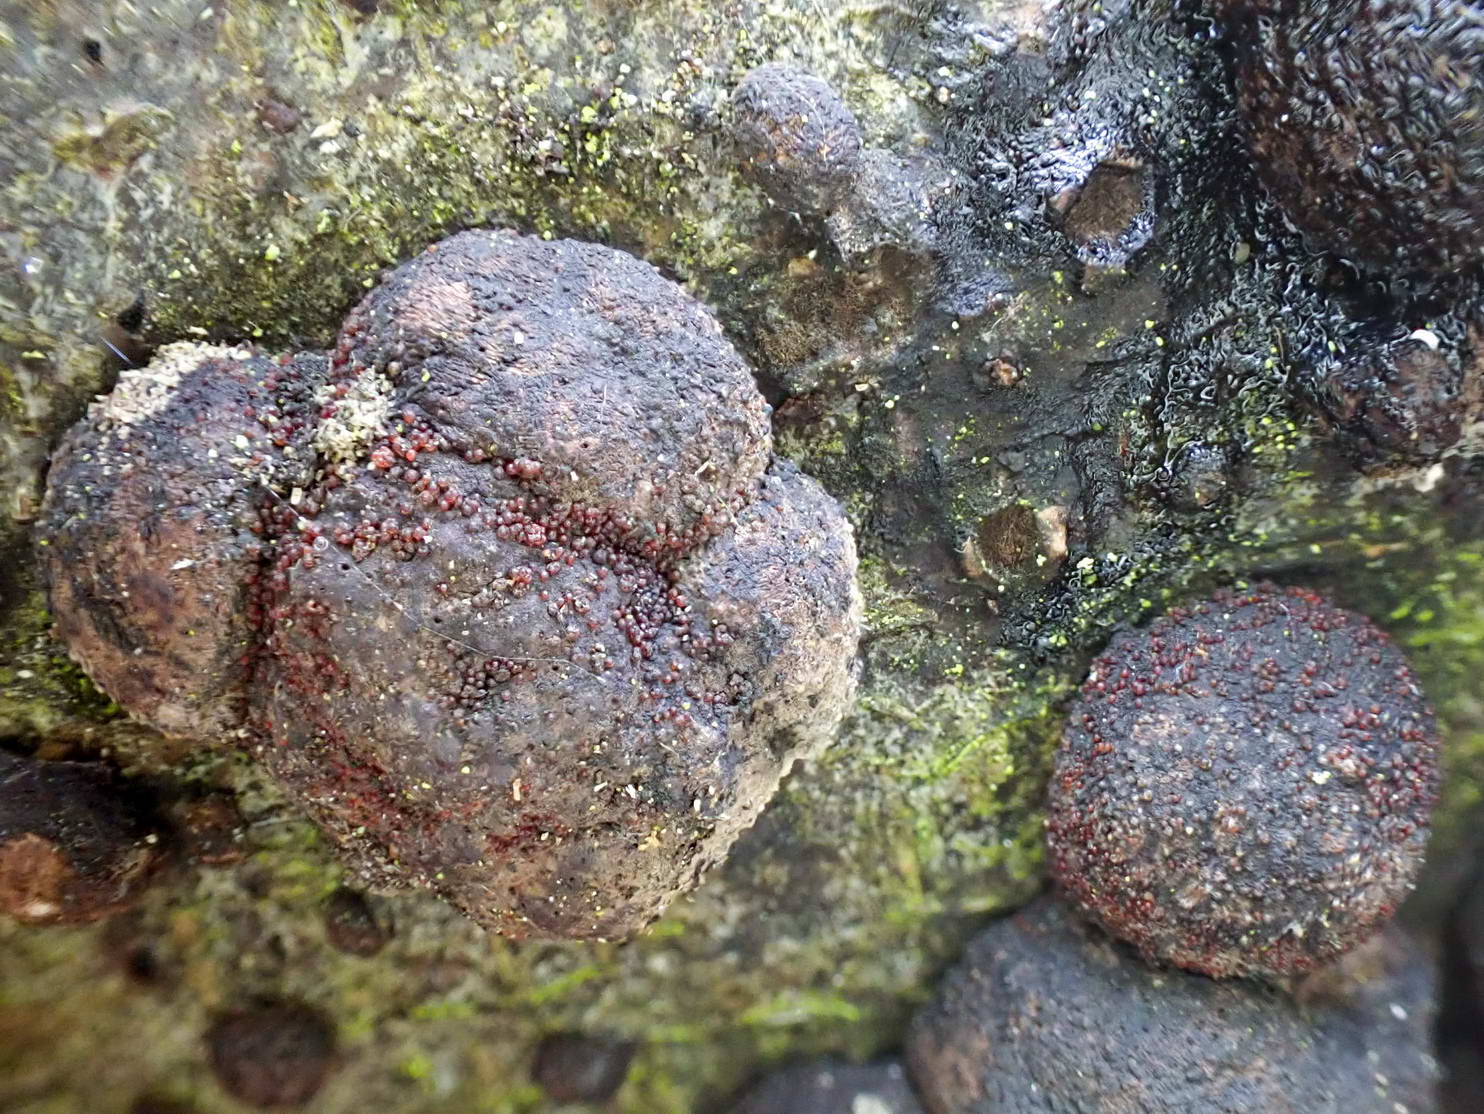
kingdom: Fungi
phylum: Ascomycota
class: Sordariomycetes
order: Hypocreales
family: Nectriaceae
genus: Cosmospora
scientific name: Cosmospora arxii
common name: kuljordbær-cinnobersvamp
